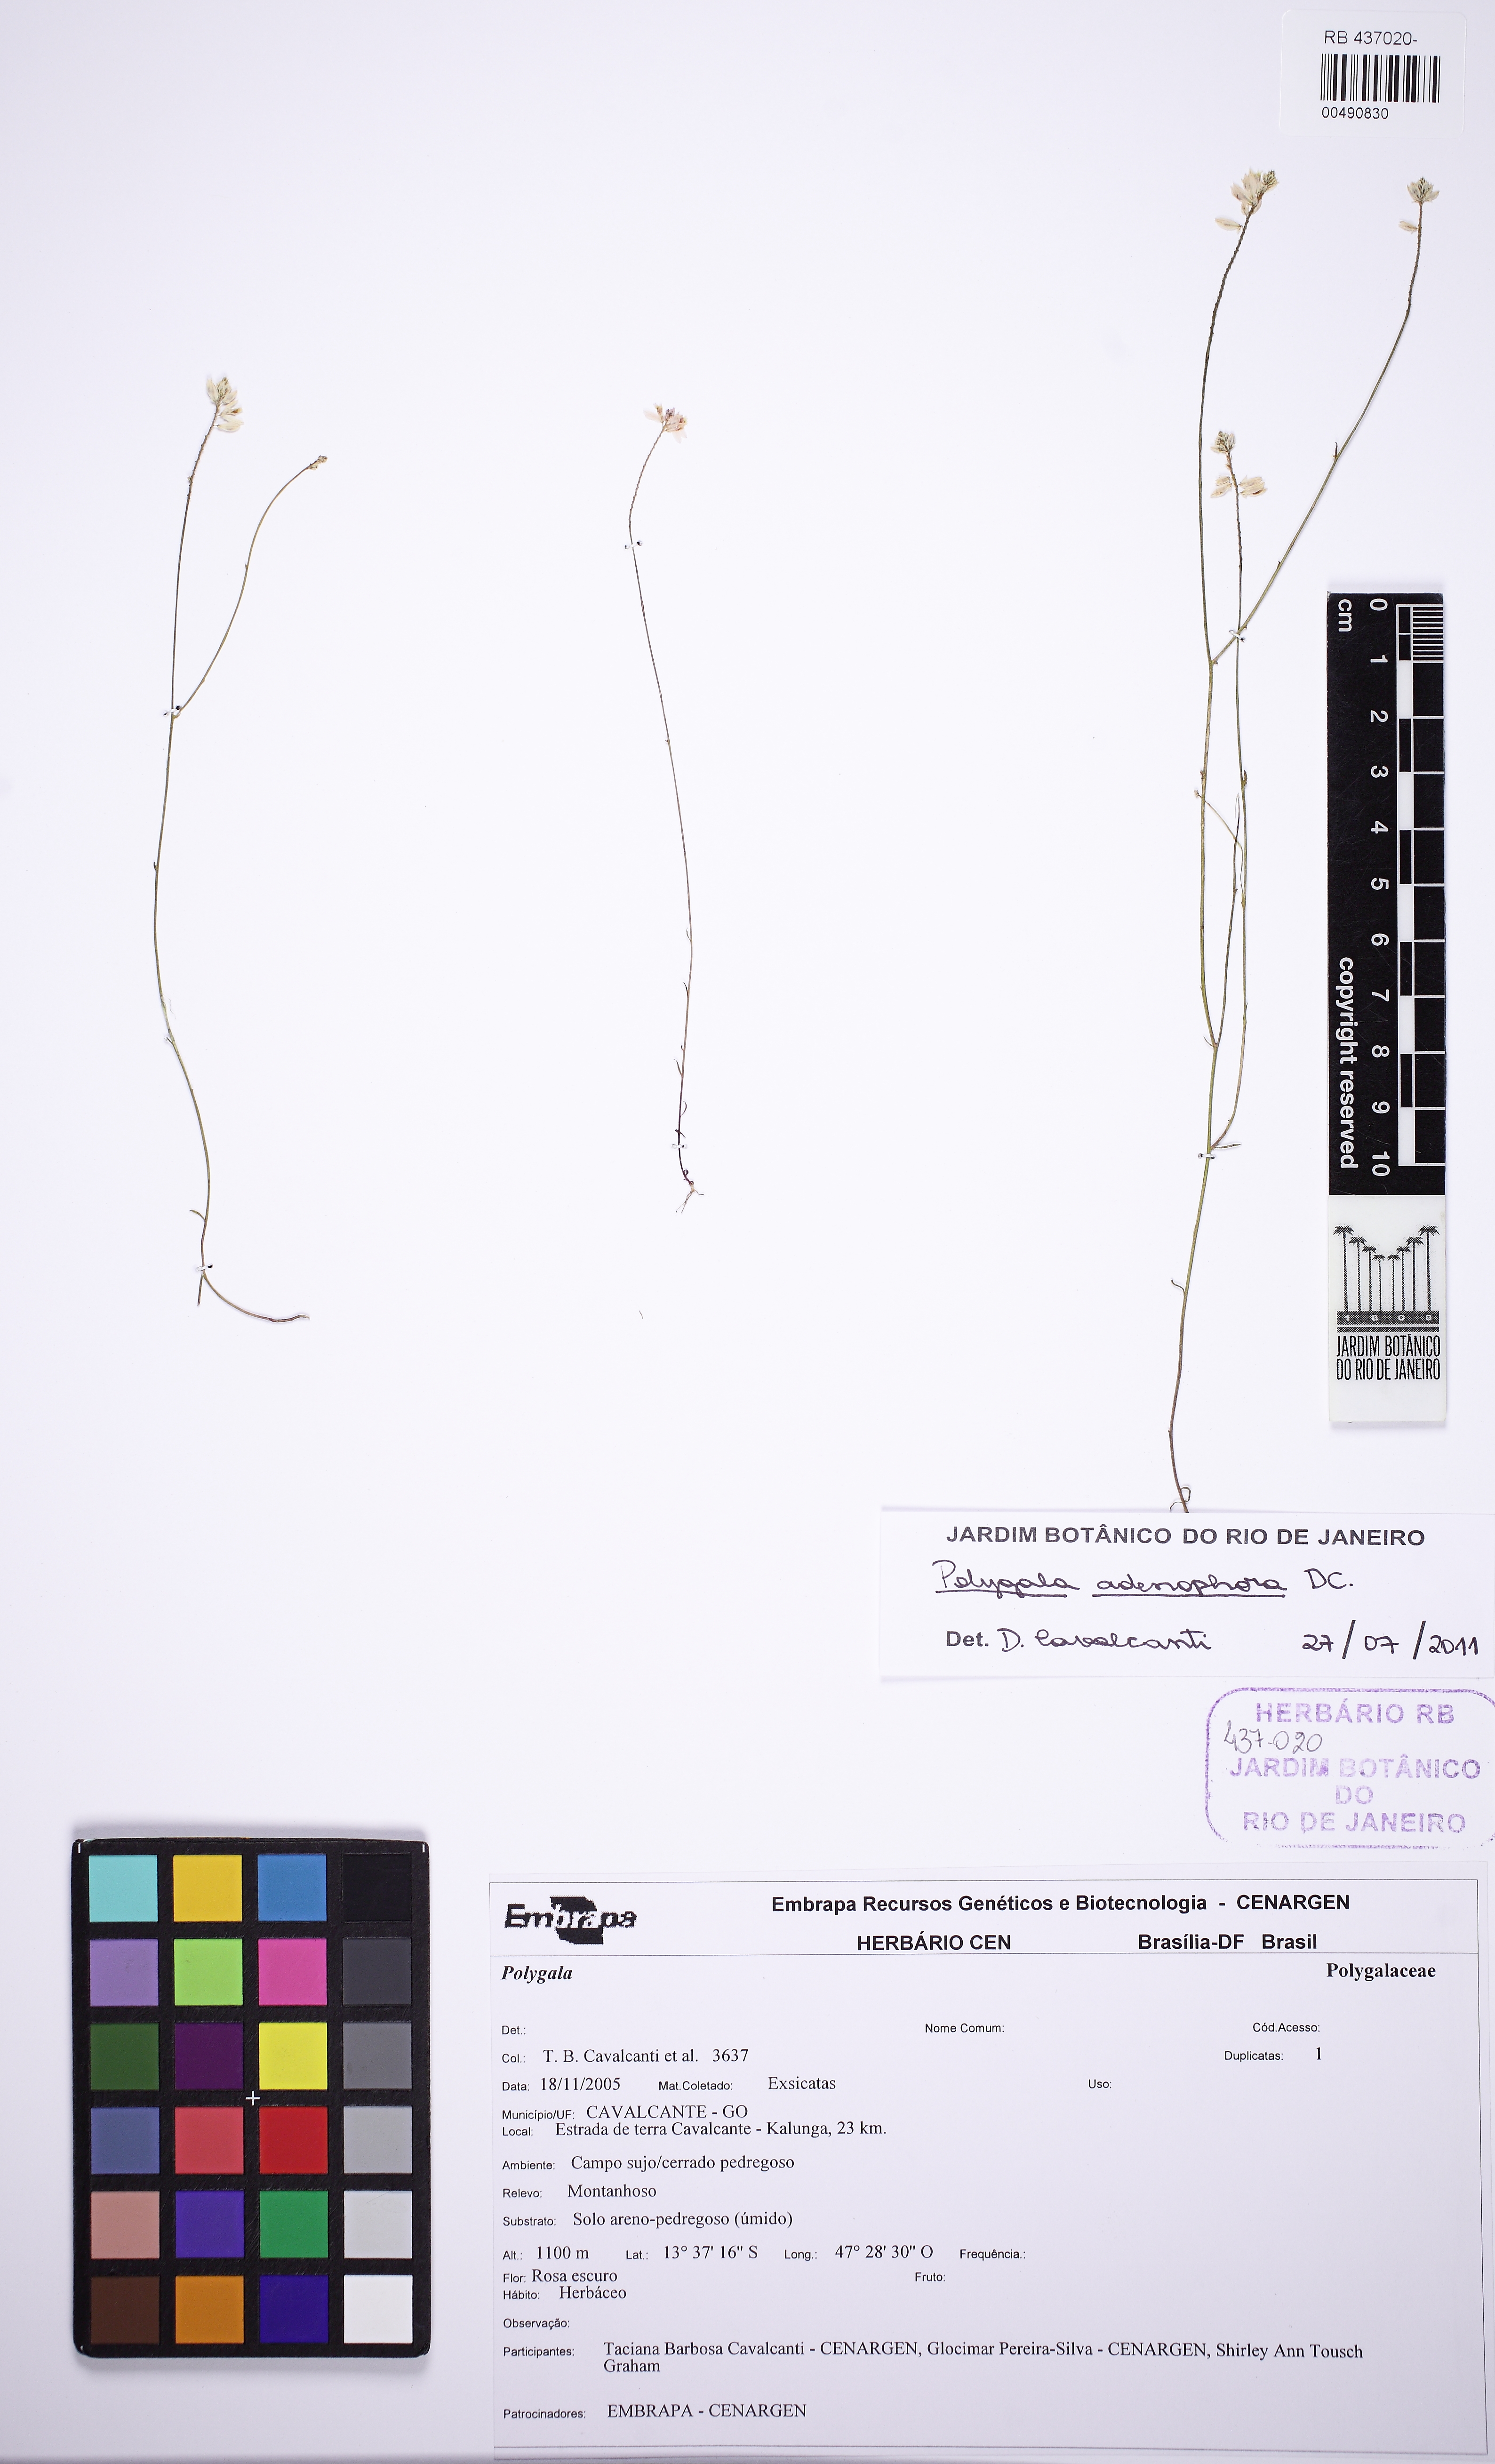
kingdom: Plantae
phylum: Tracheophyta
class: Magnoliopsida
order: Fabales
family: Polygalaceae
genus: Polygala
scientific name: Polygala herbiola
